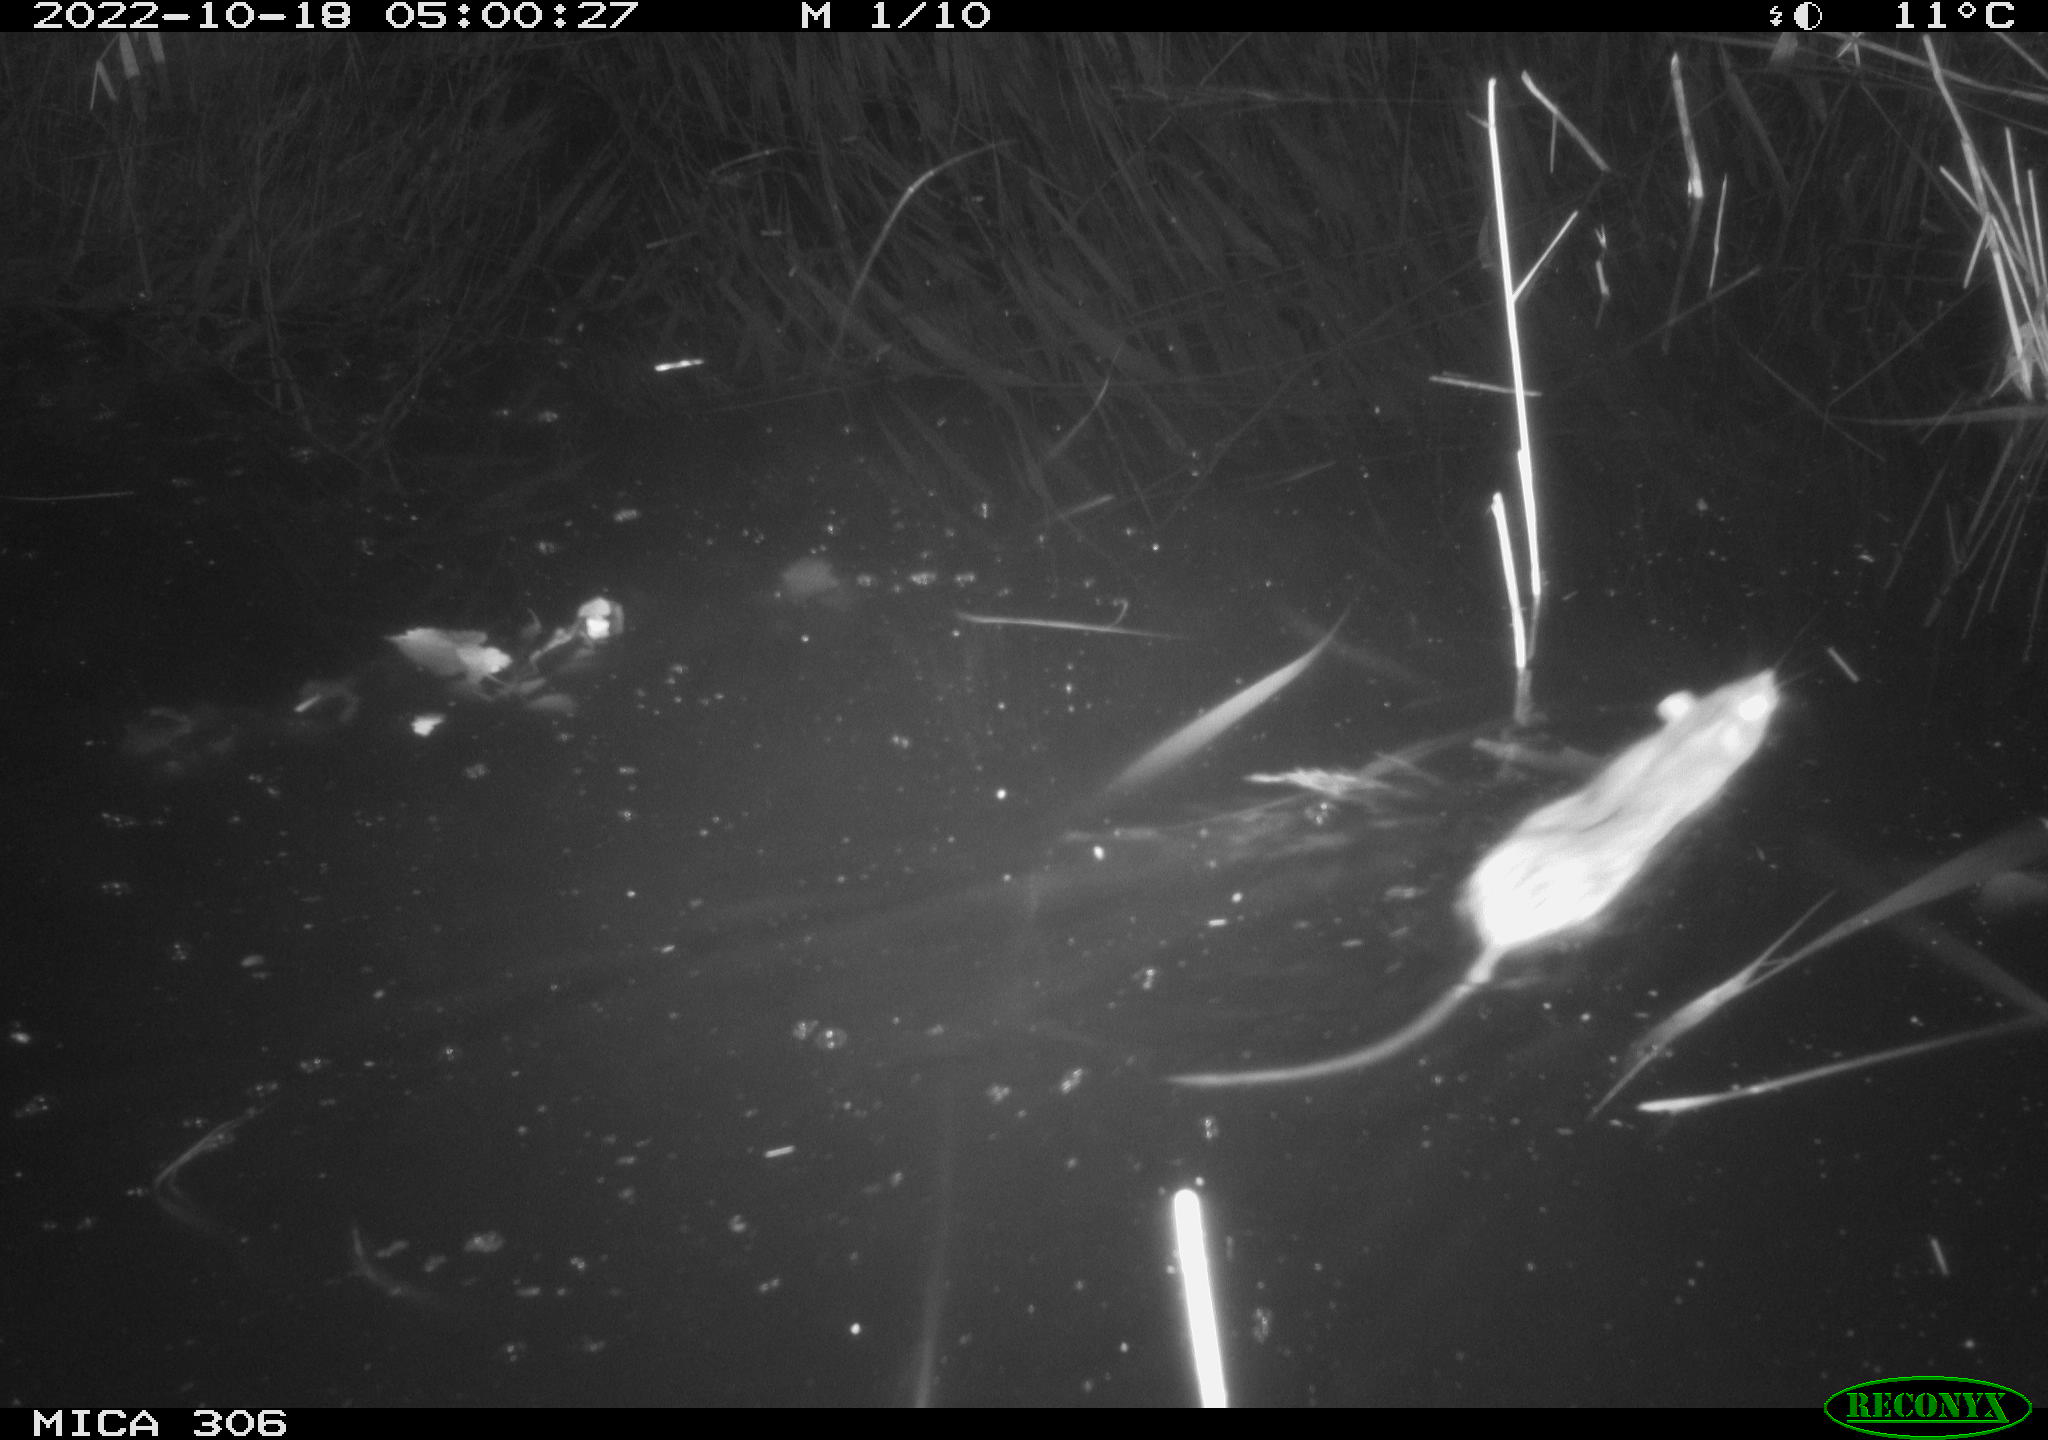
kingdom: Animalia
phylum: Chordata
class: Mammalia
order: Rodentia
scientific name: Rodentia
